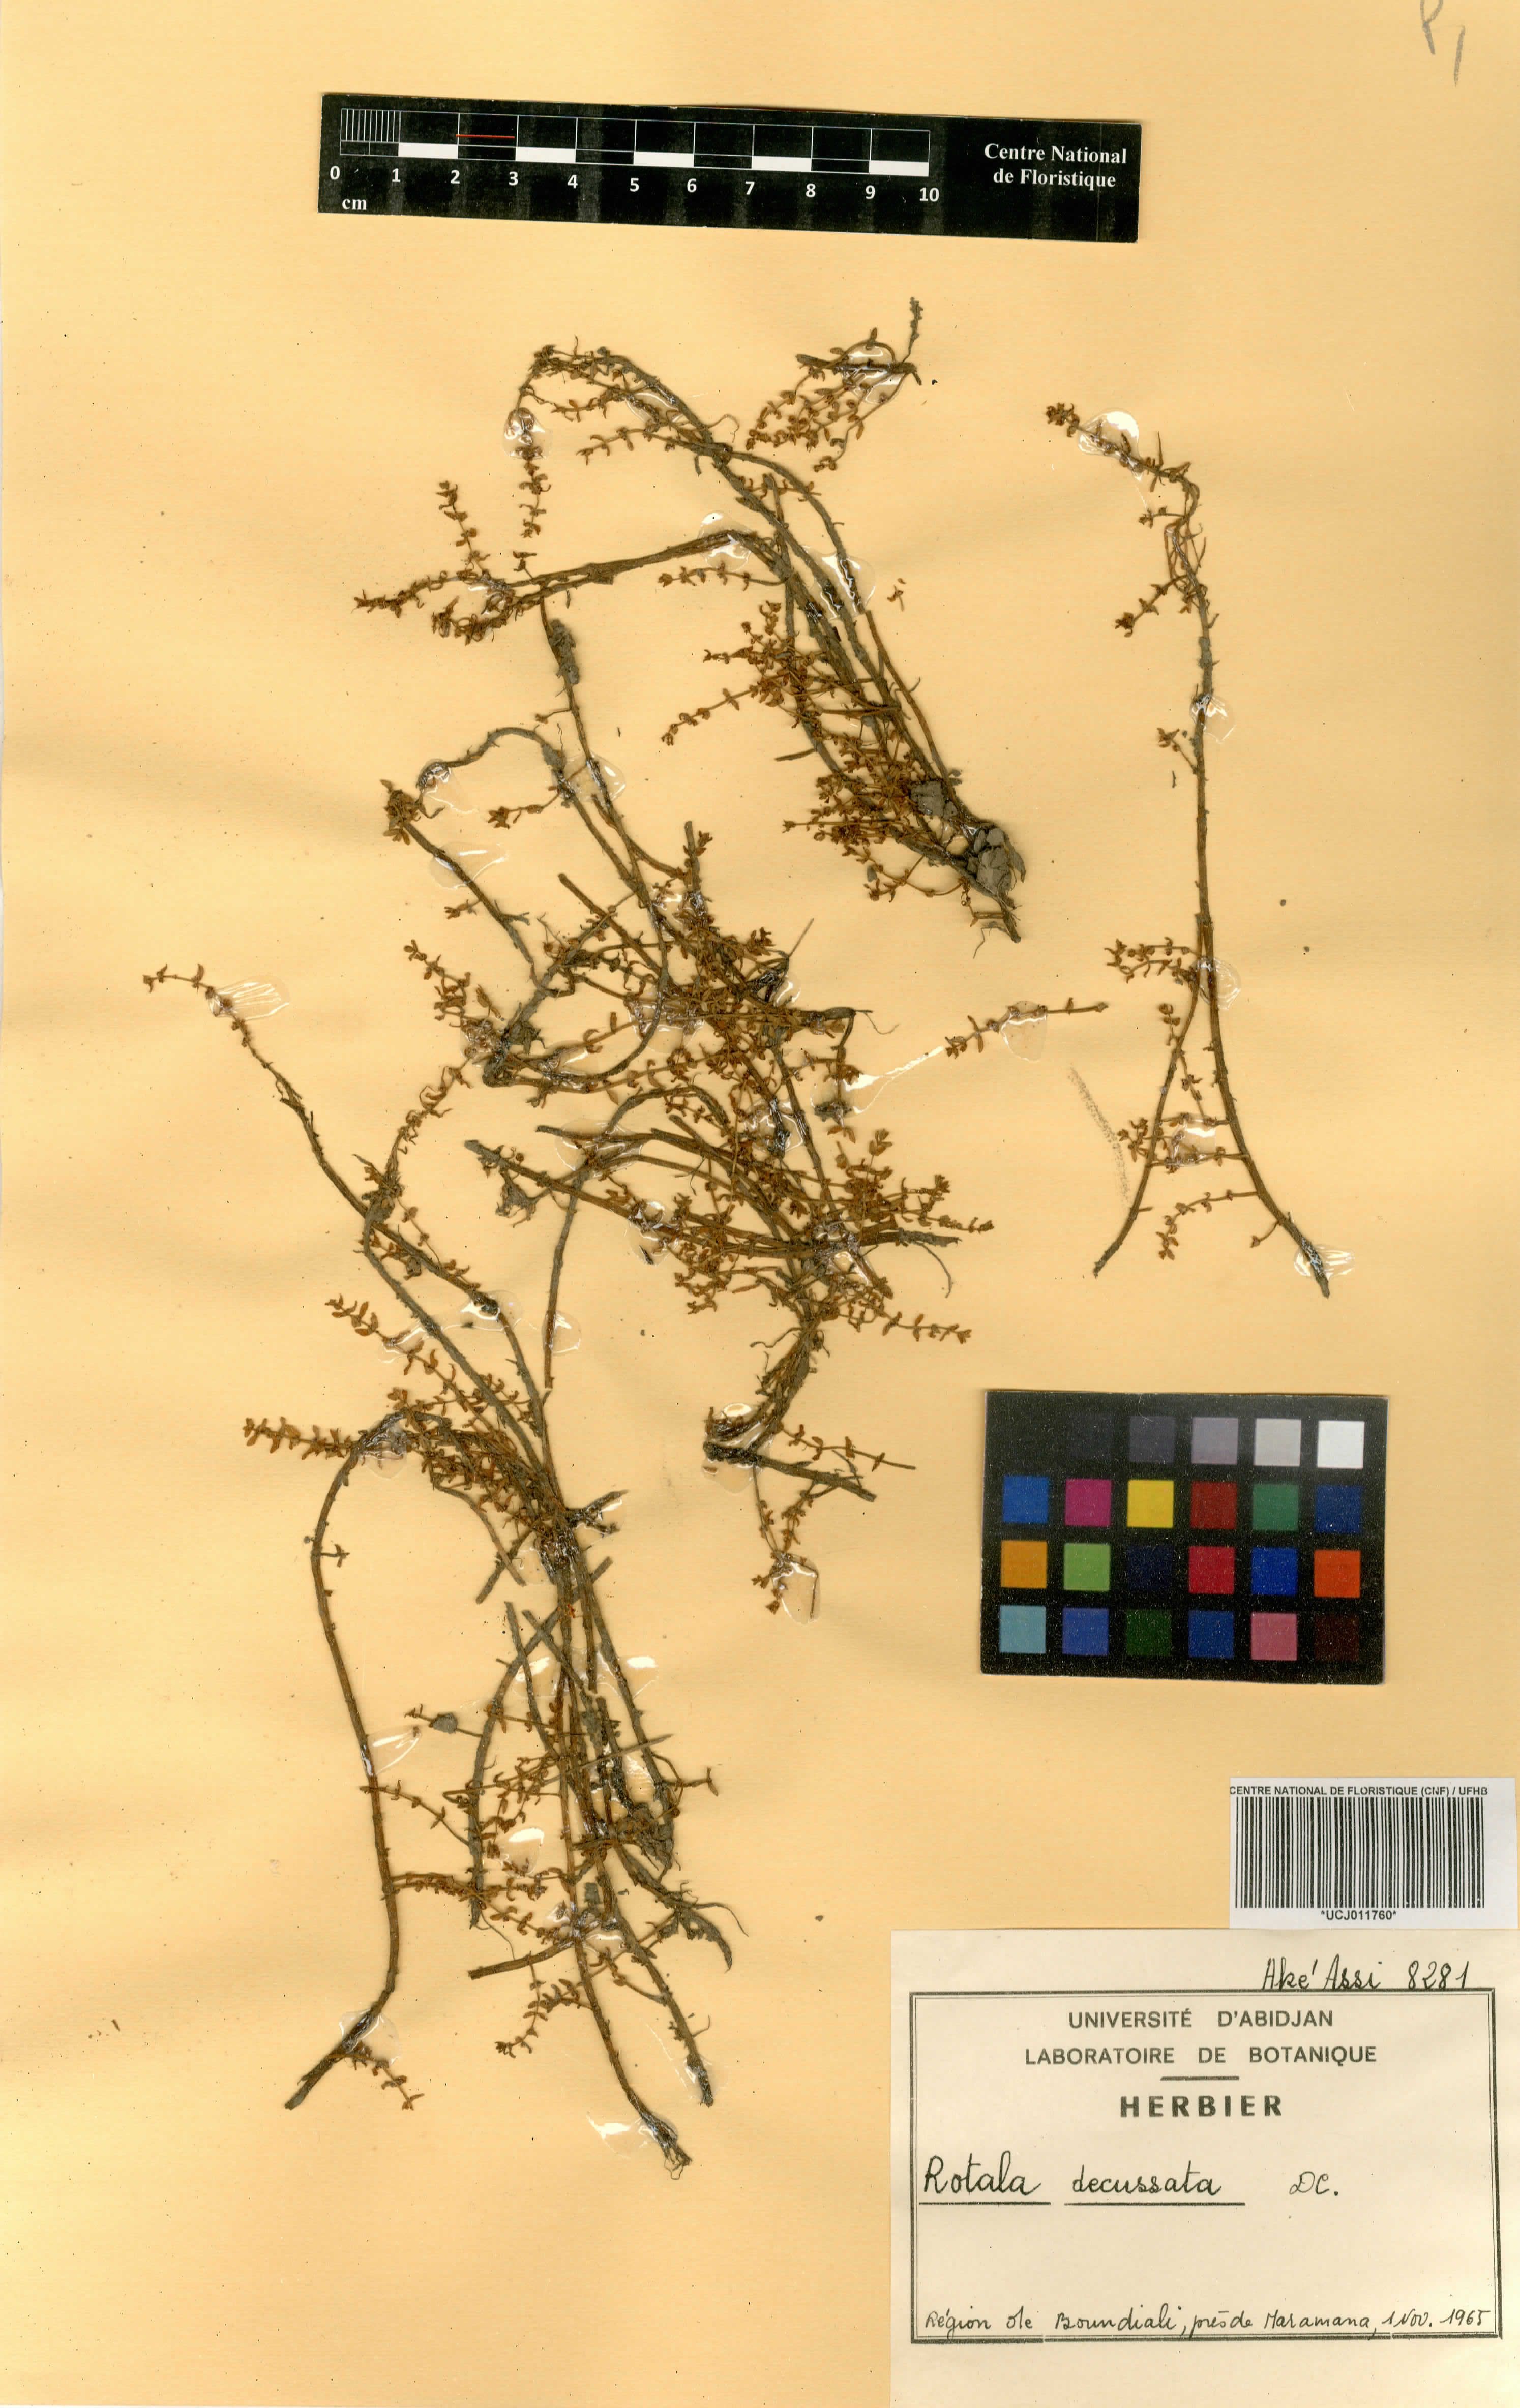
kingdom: Plantae
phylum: Tracheophyta
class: Magnoliopsida
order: Myrtales
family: Lythraceae
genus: Rotala
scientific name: Rotala mexicana
